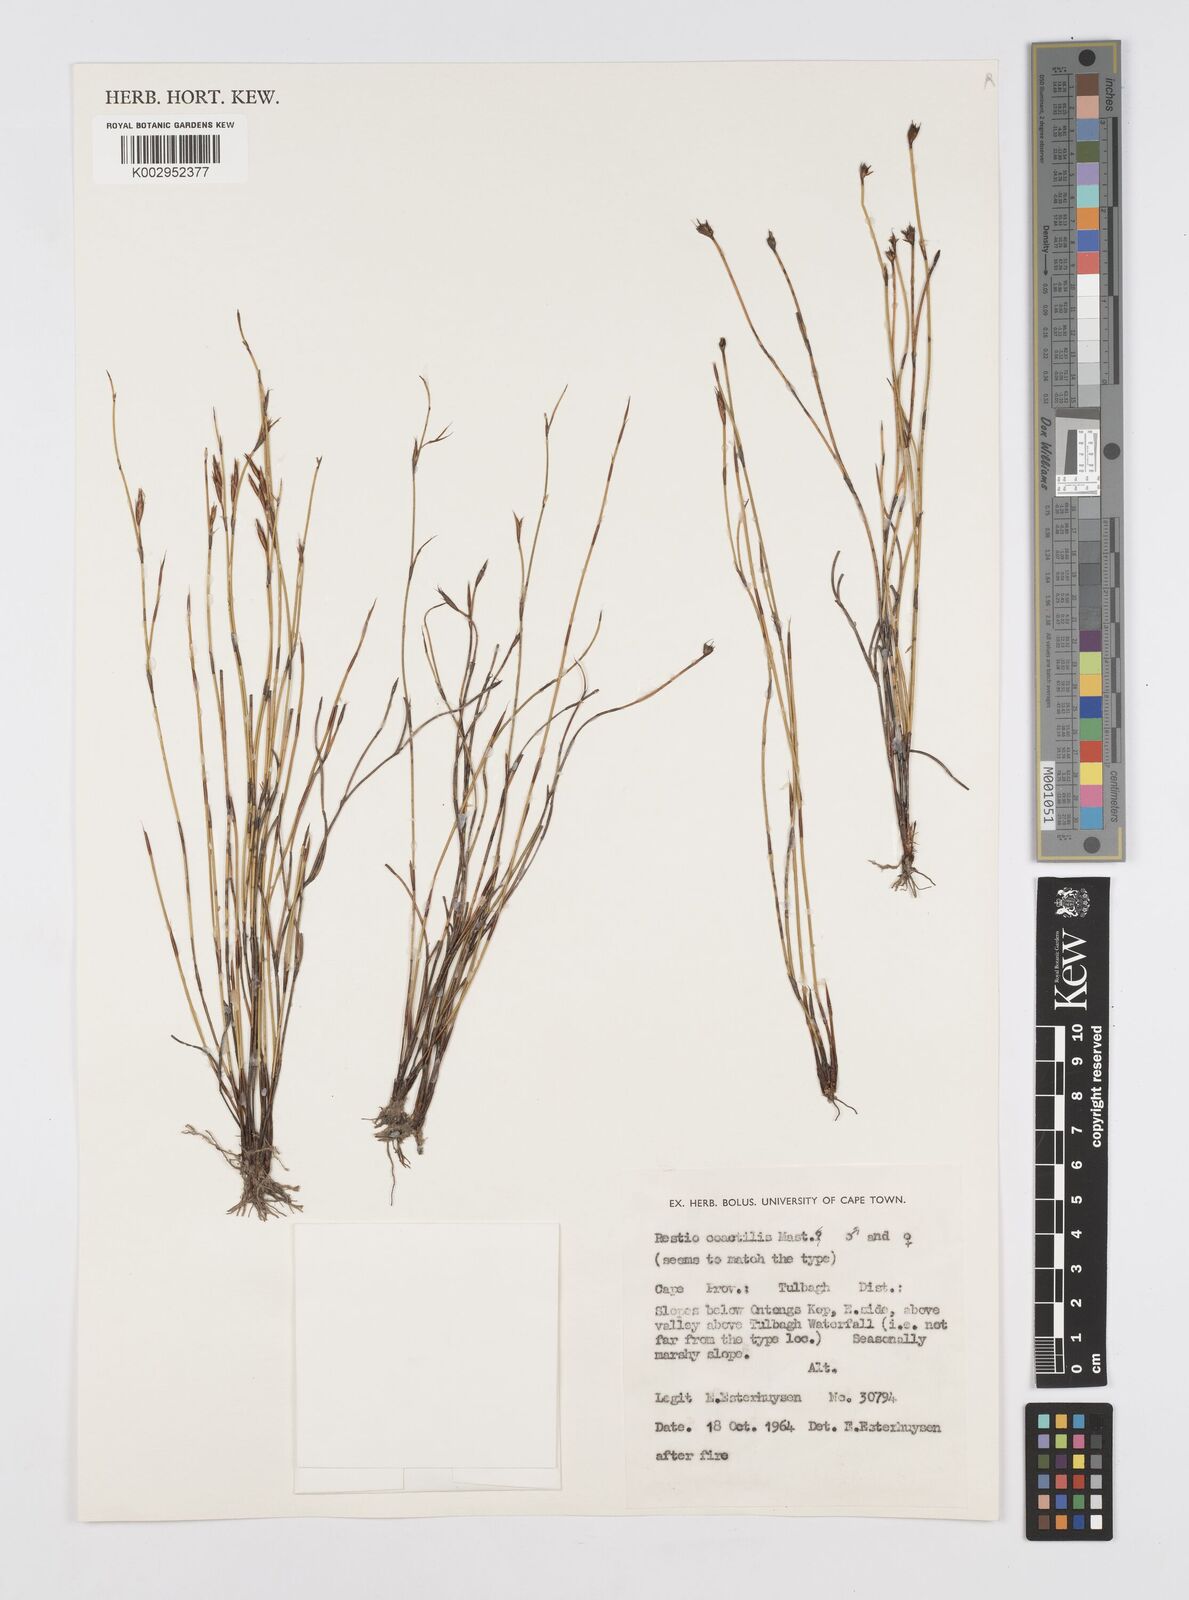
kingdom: Plantae
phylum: Tracheophyta
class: Liliopsida
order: Poales
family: Restionaceae
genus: Restio
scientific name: Restio coactilis
